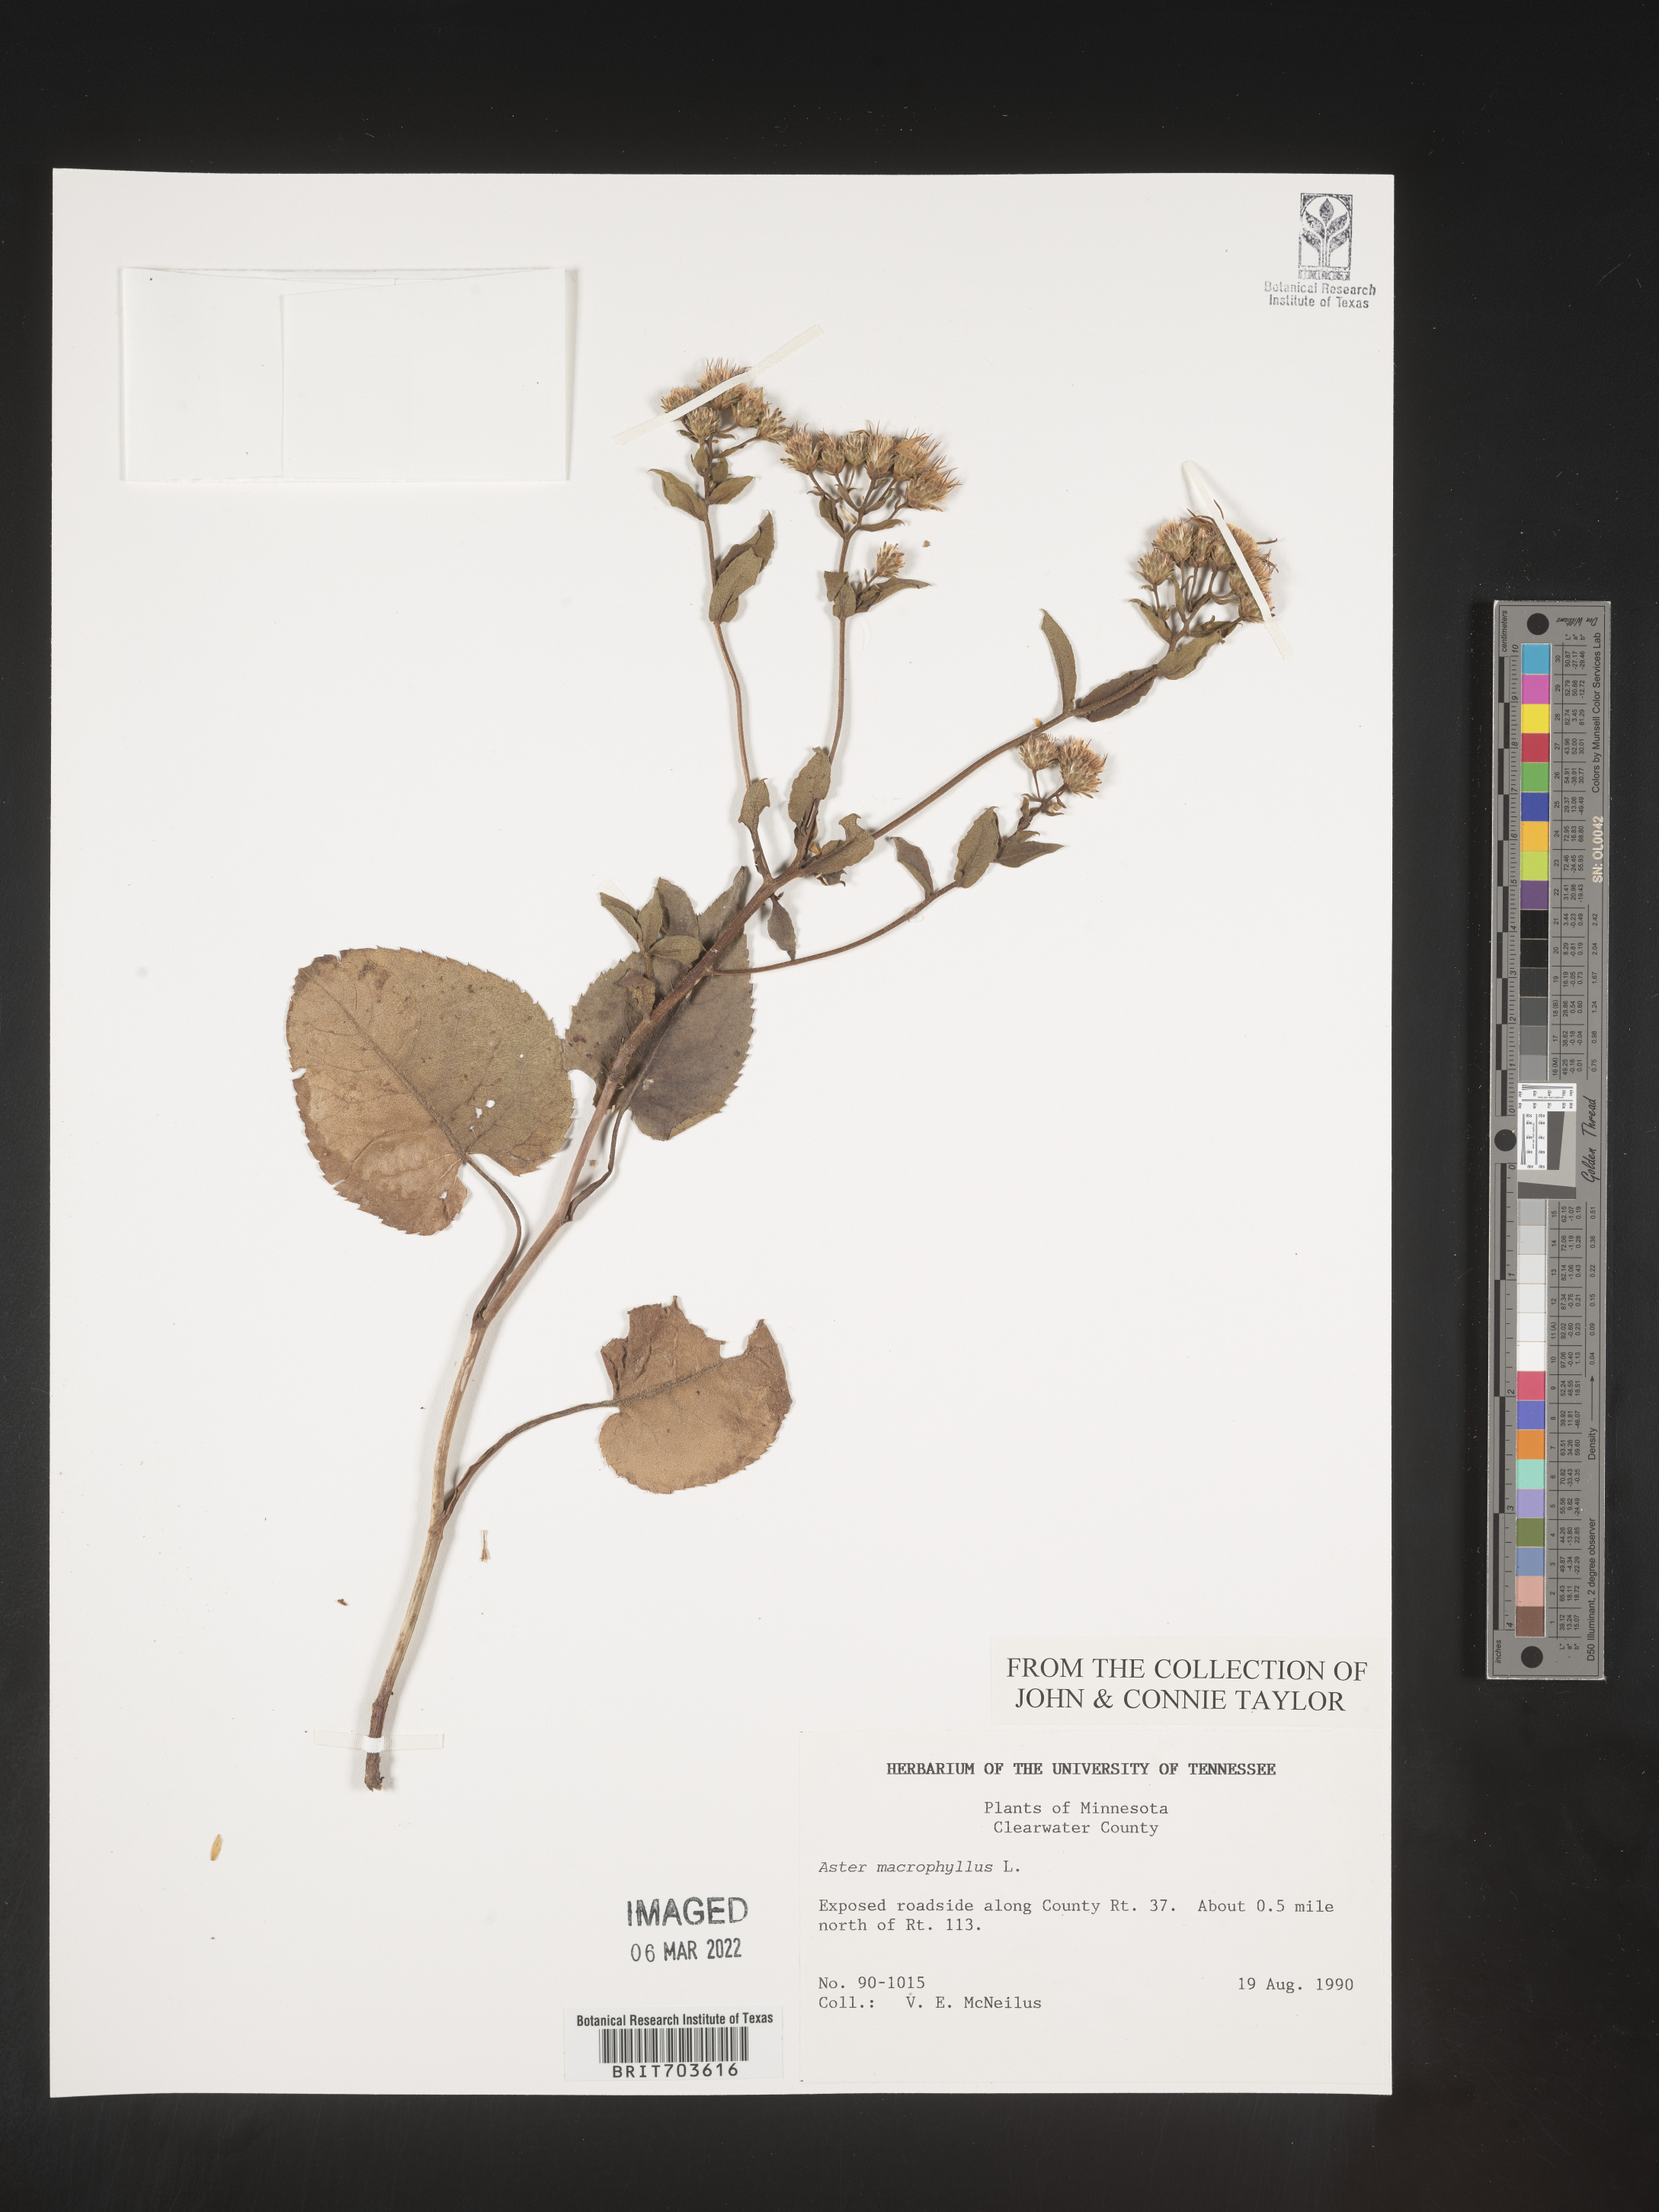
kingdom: Plantae
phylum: Tracheophyta
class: Magnoliopsida
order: Asterales
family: Asteraceae
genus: Eurybia
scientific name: Eurybia macrophylla
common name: Big-leaved aster
